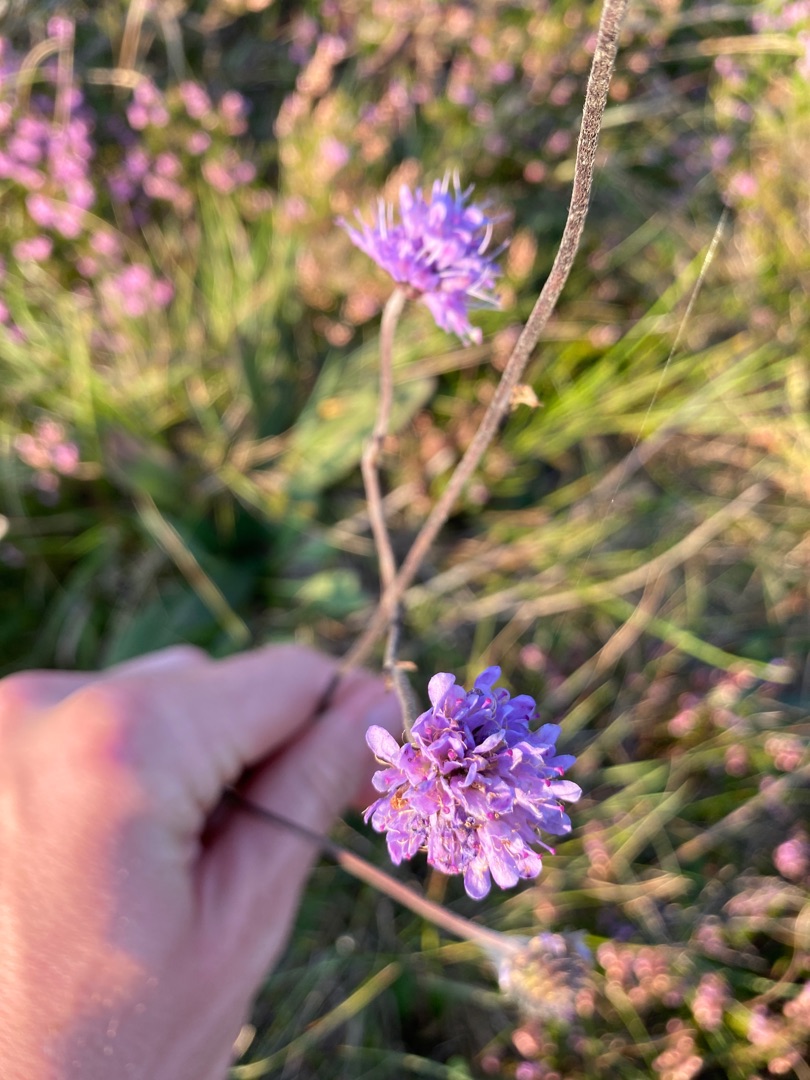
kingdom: Plantae
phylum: Tracheophyta
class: Magnoliopsida
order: Dipsacales
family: Caprifoliaceae
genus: Succisa
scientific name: Succisa pratensis
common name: Djævelsbid
